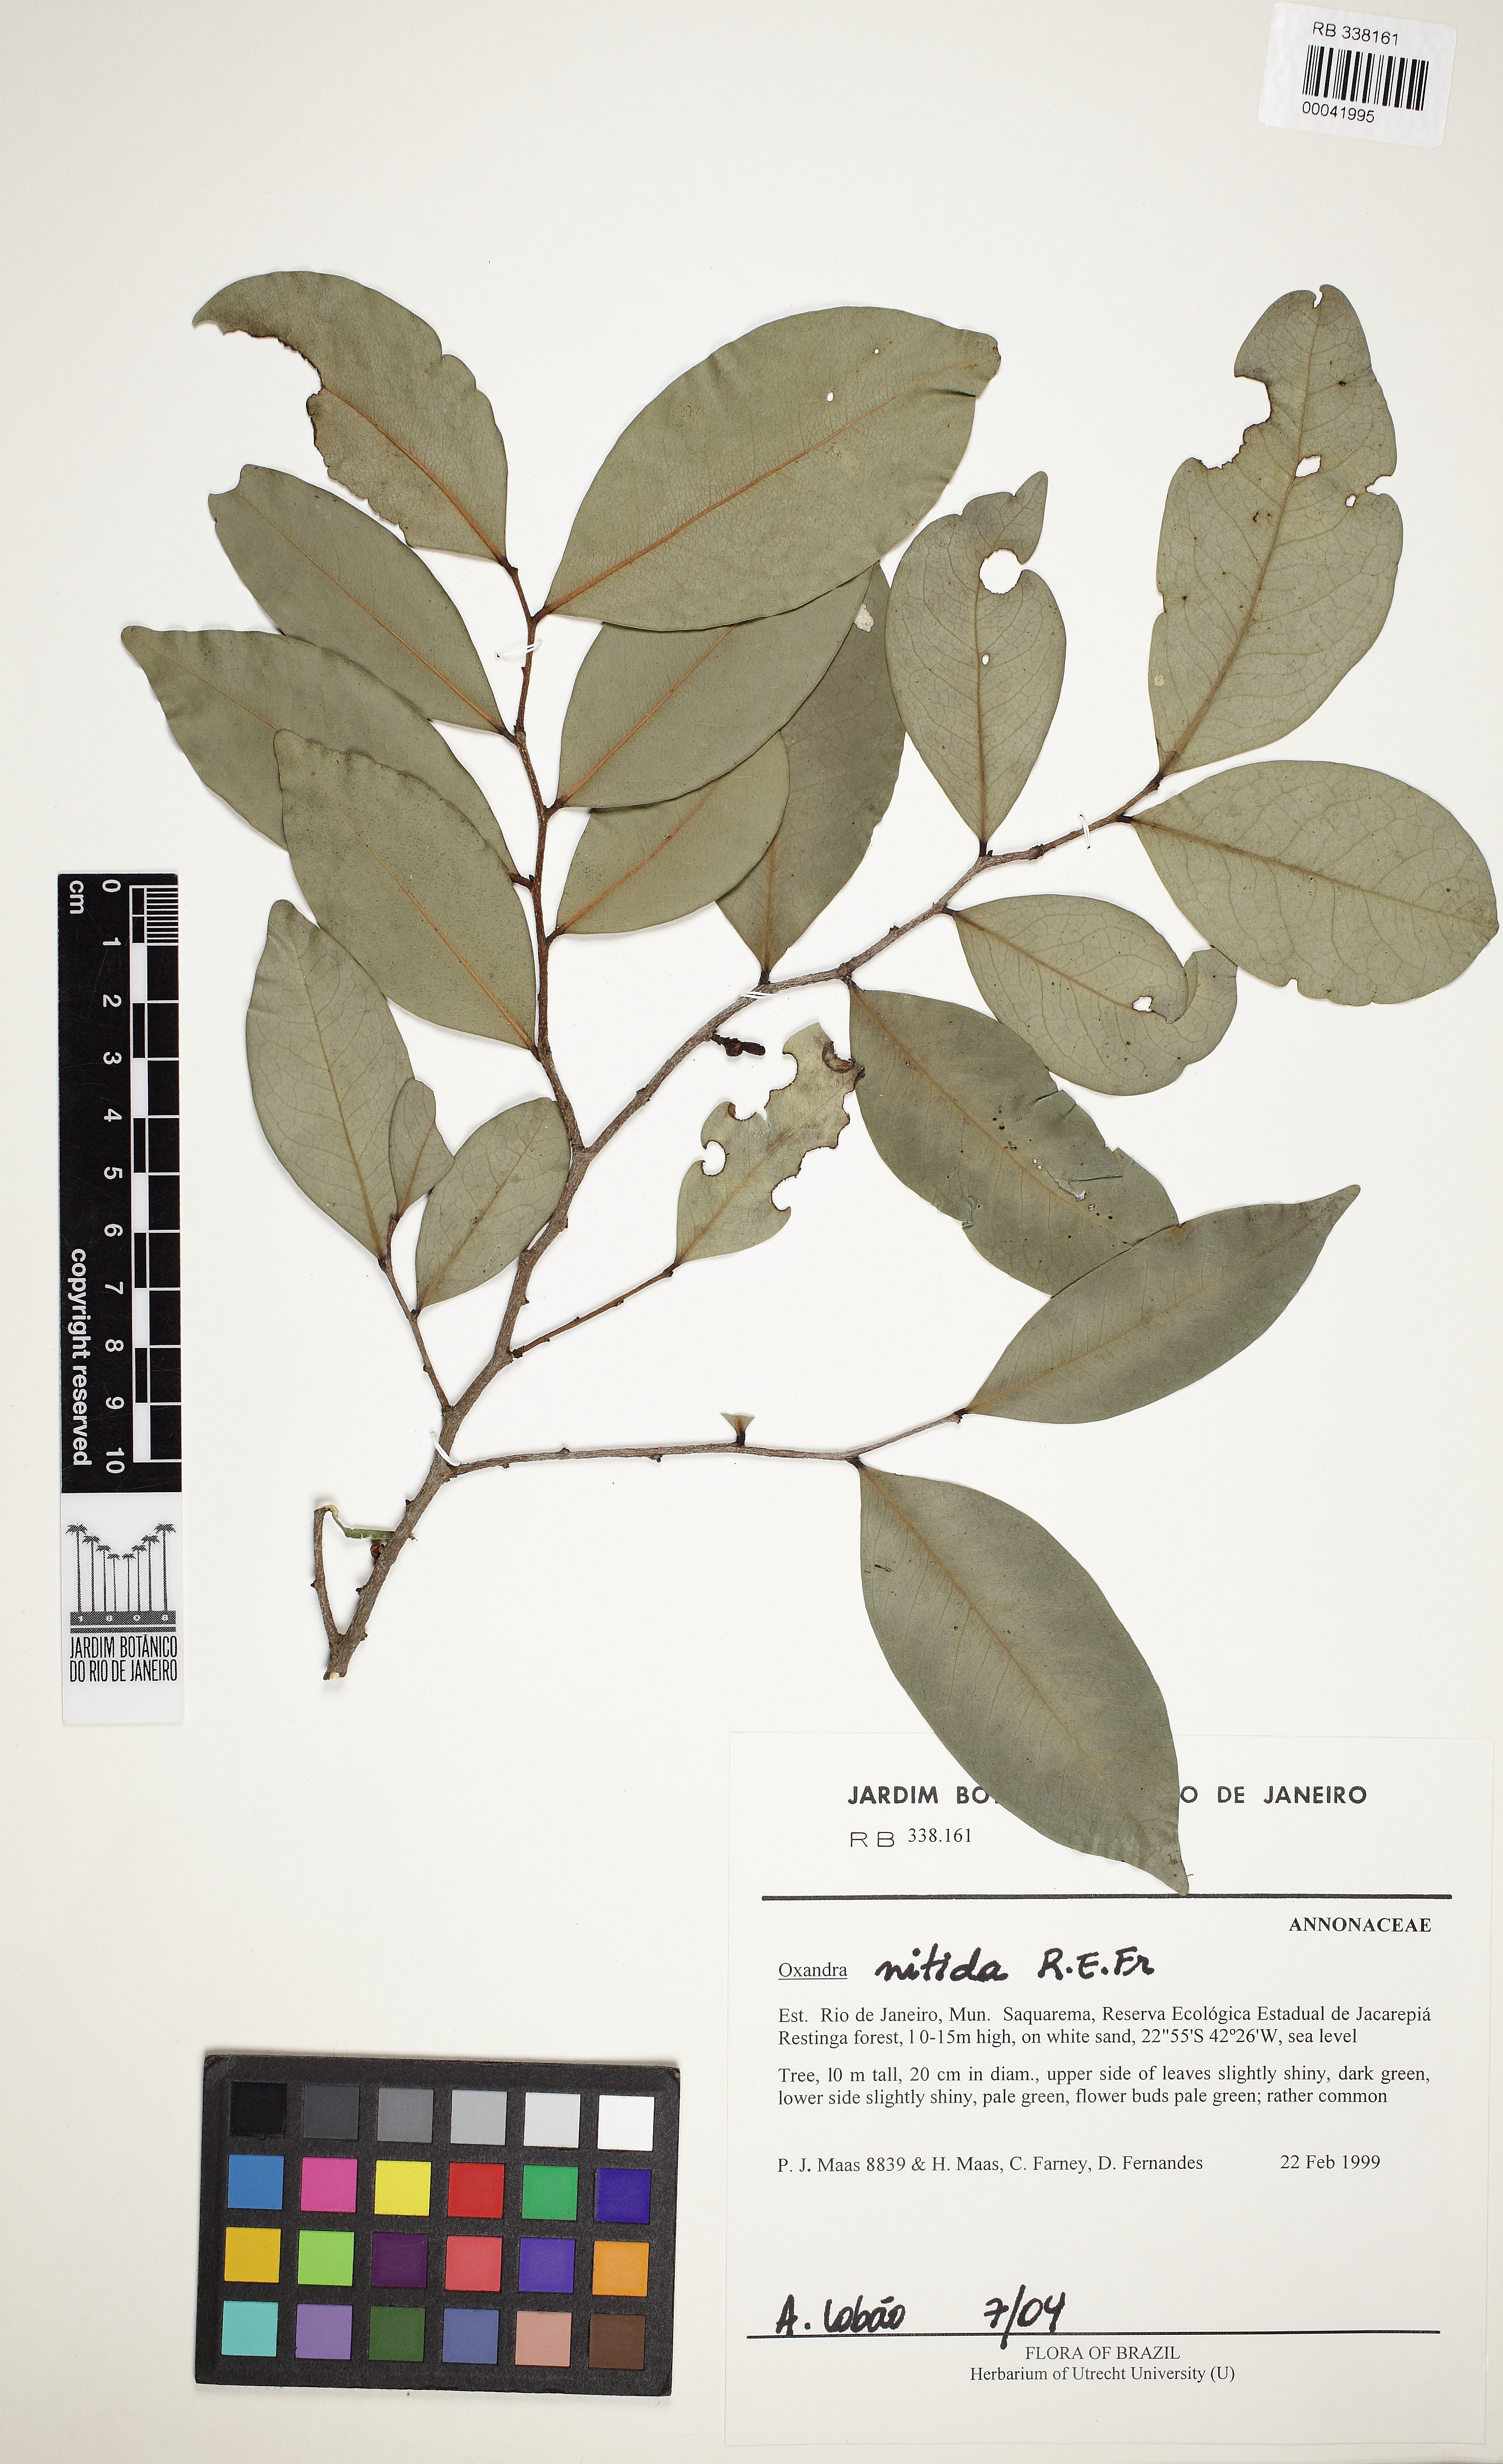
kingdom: Plantae
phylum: Tracheophyta
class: Magnoliopsida
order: Magnoliales
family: Annonaceae
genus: Oxandra
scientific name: Oxandra espintana
